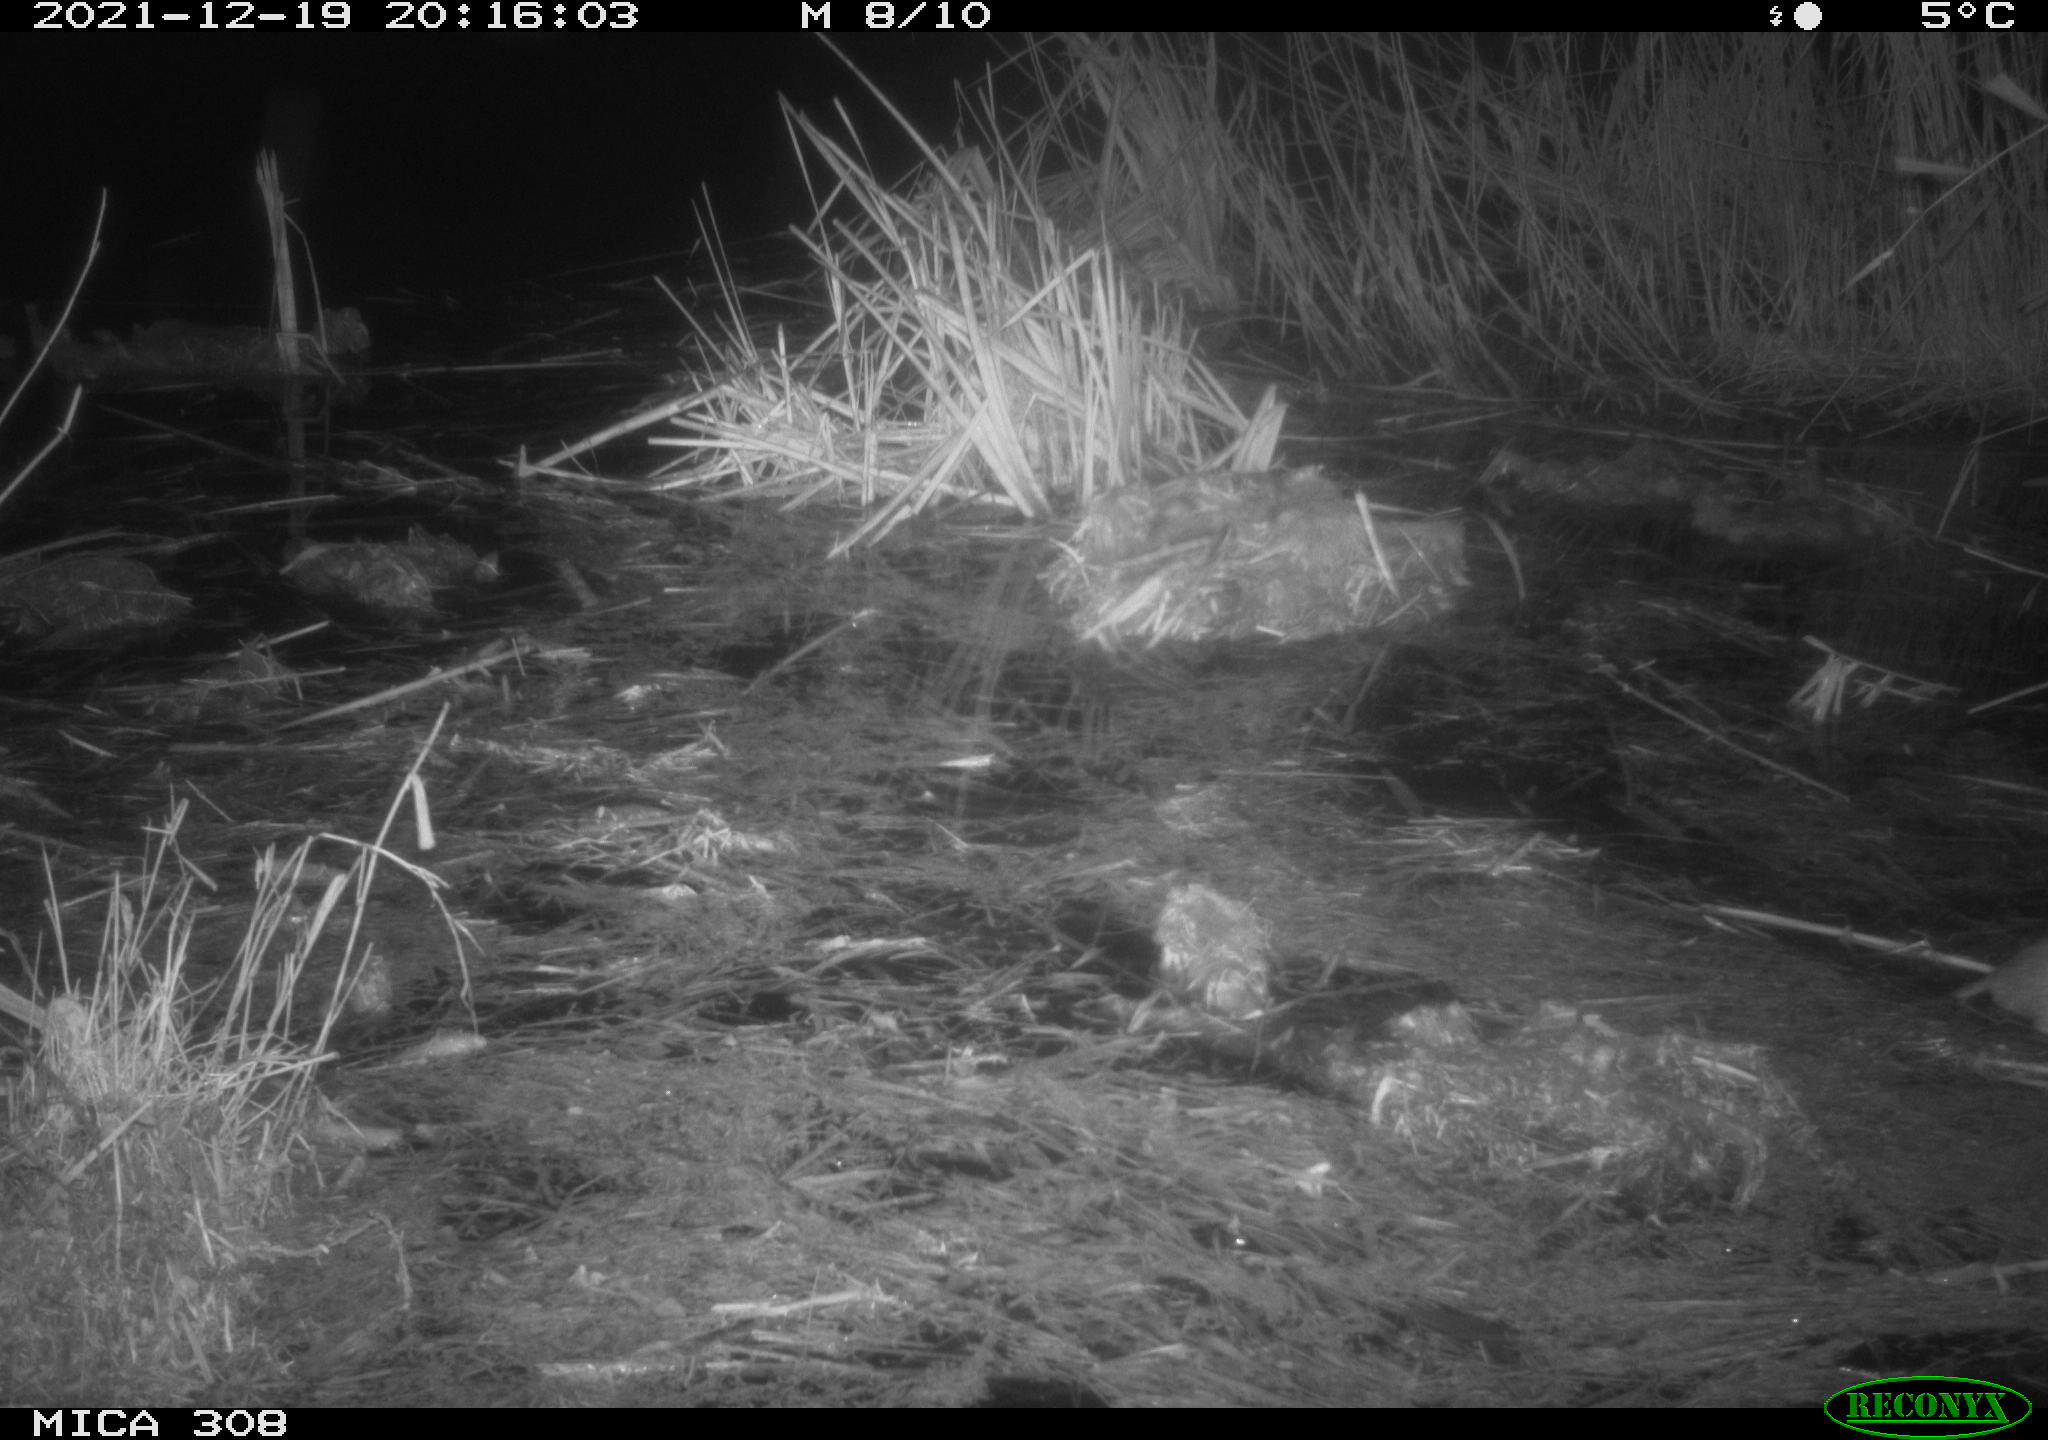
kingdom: Animalia
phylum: Chordata
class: Mammalia
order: Rodentia
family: Muridae
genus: Rattus
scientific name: Rattus norvegicus
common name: Brown rat
